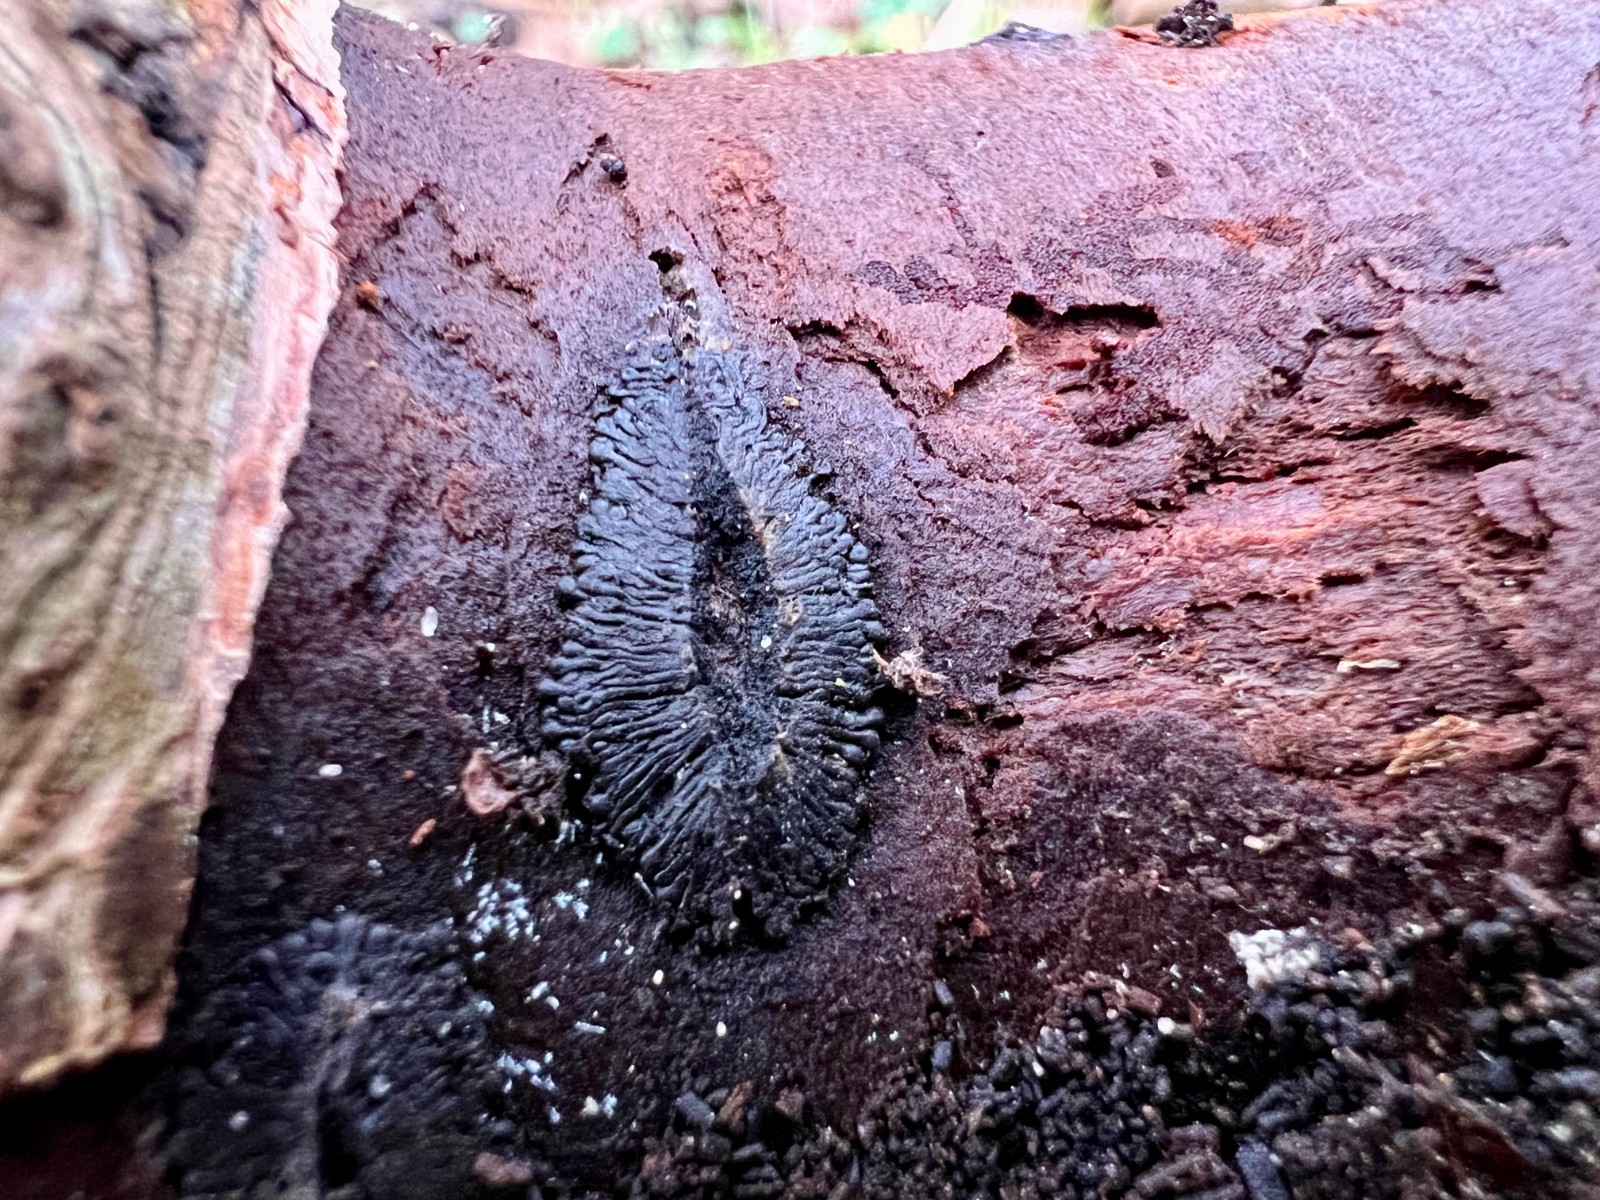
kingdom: Fungi
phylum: Ascomycota
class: Sordariomycetes
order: Calosphaeriales
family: Calosphaeriaceae
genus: Calosphaeria
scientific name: Calosphaeria pulchella
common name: smuk slyngkerne
